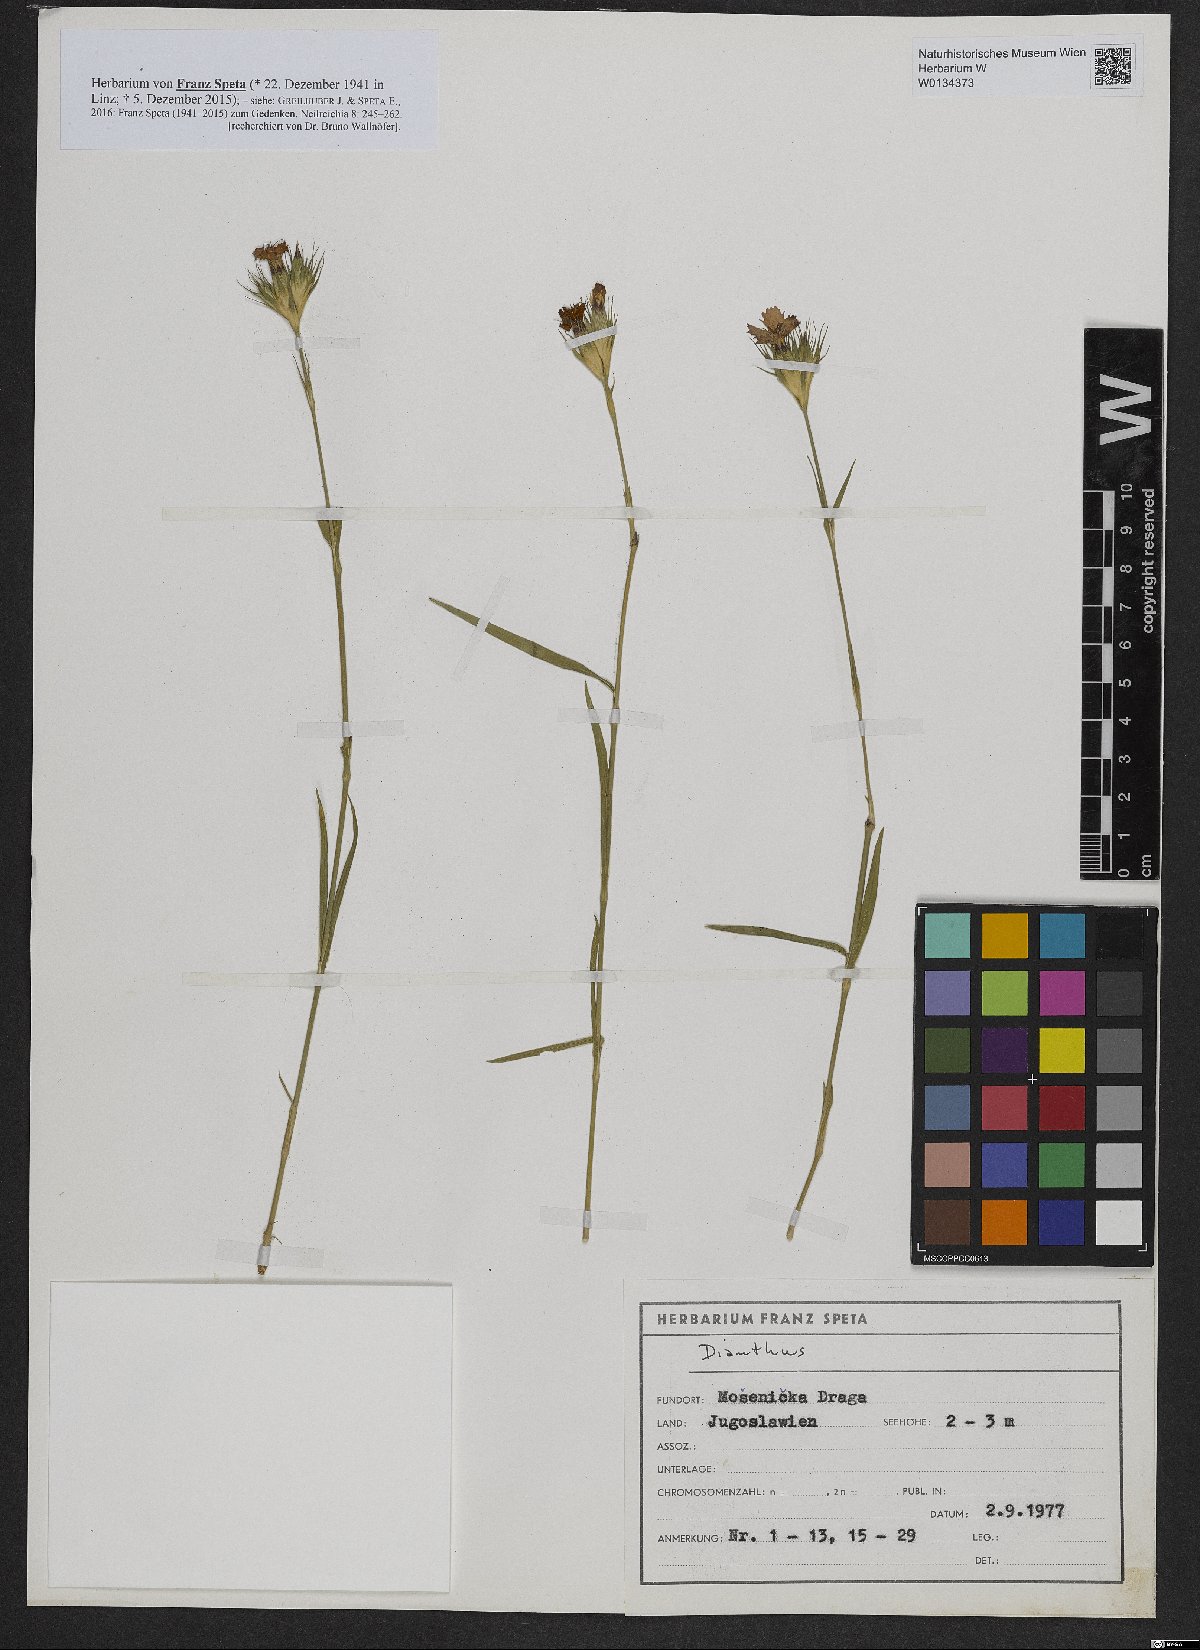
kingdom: Plantae
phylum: Tracheophyta
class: Magnoliopsida
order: Caryophyllales
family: Caryophyllaceae
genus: Dianthus
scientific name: Dianthus
